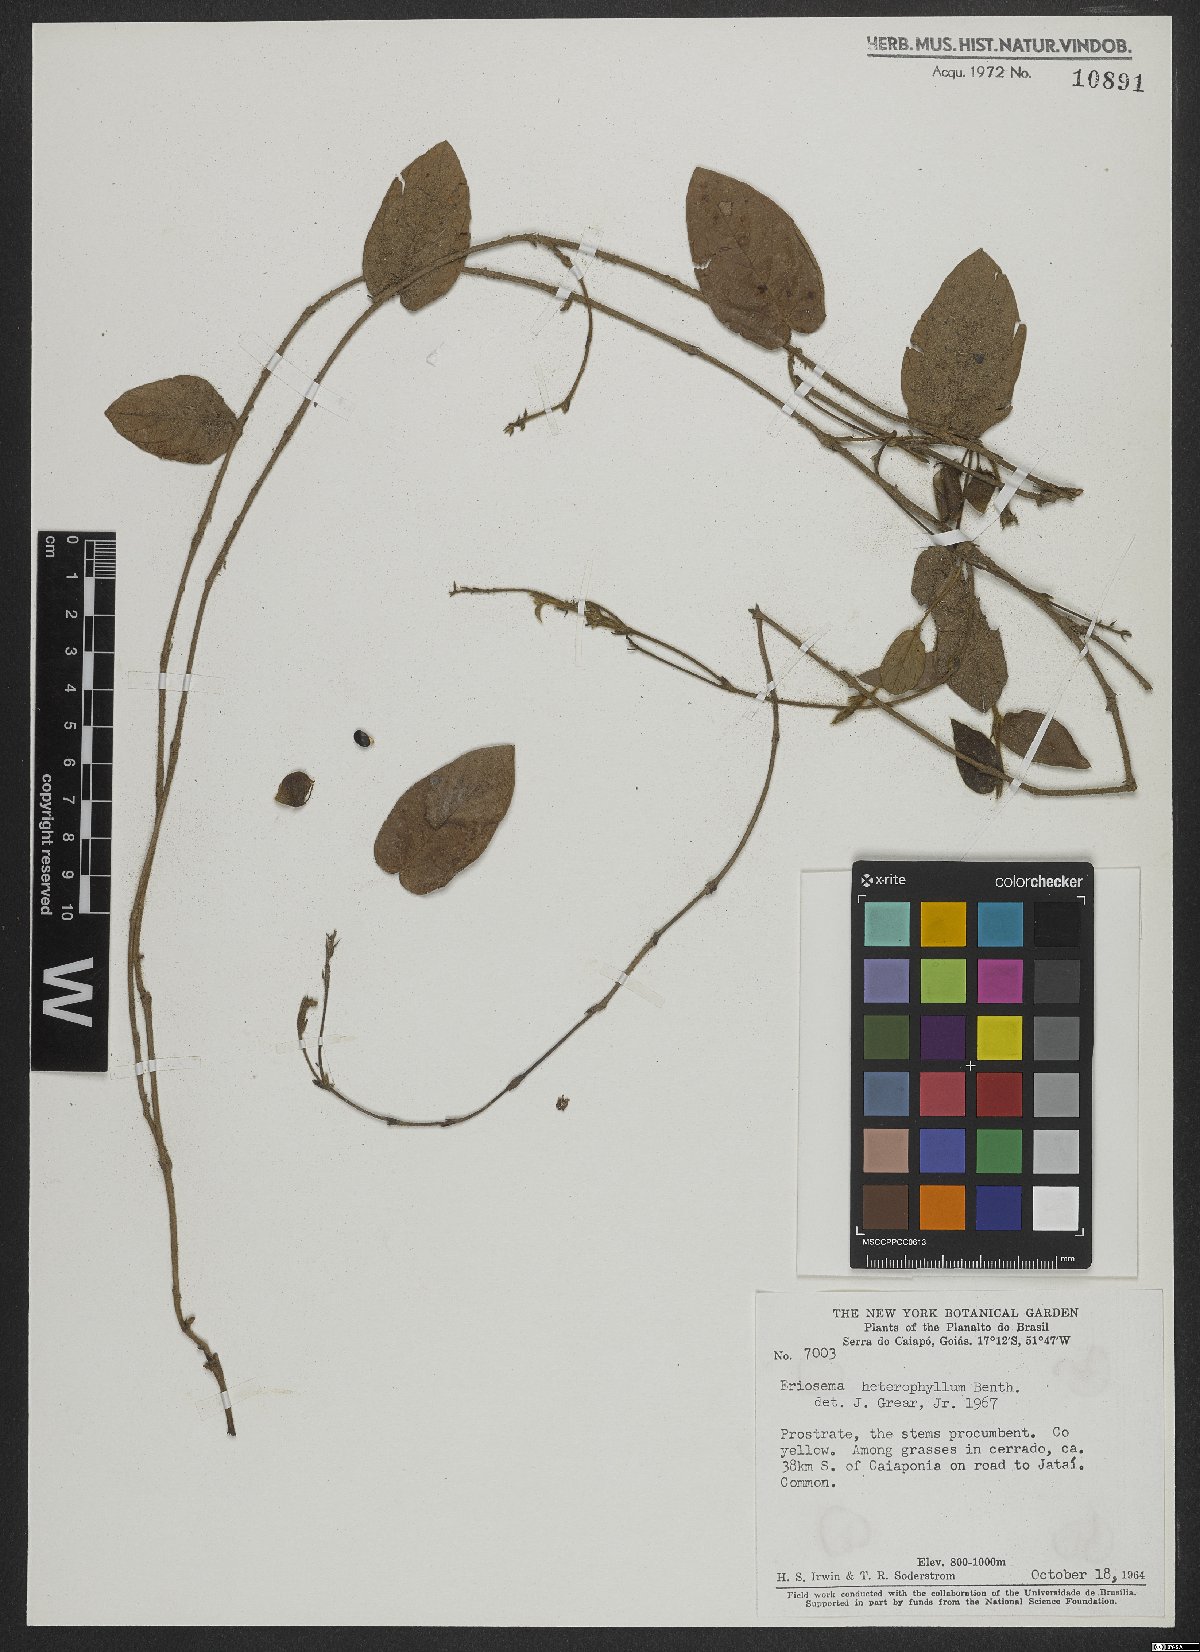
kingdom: Plantae
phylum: Tracheophyta
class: Magnoliopsida
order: Fabales
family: Fabaceae
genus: Eriosema
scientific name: Eriosema heterophyllum
